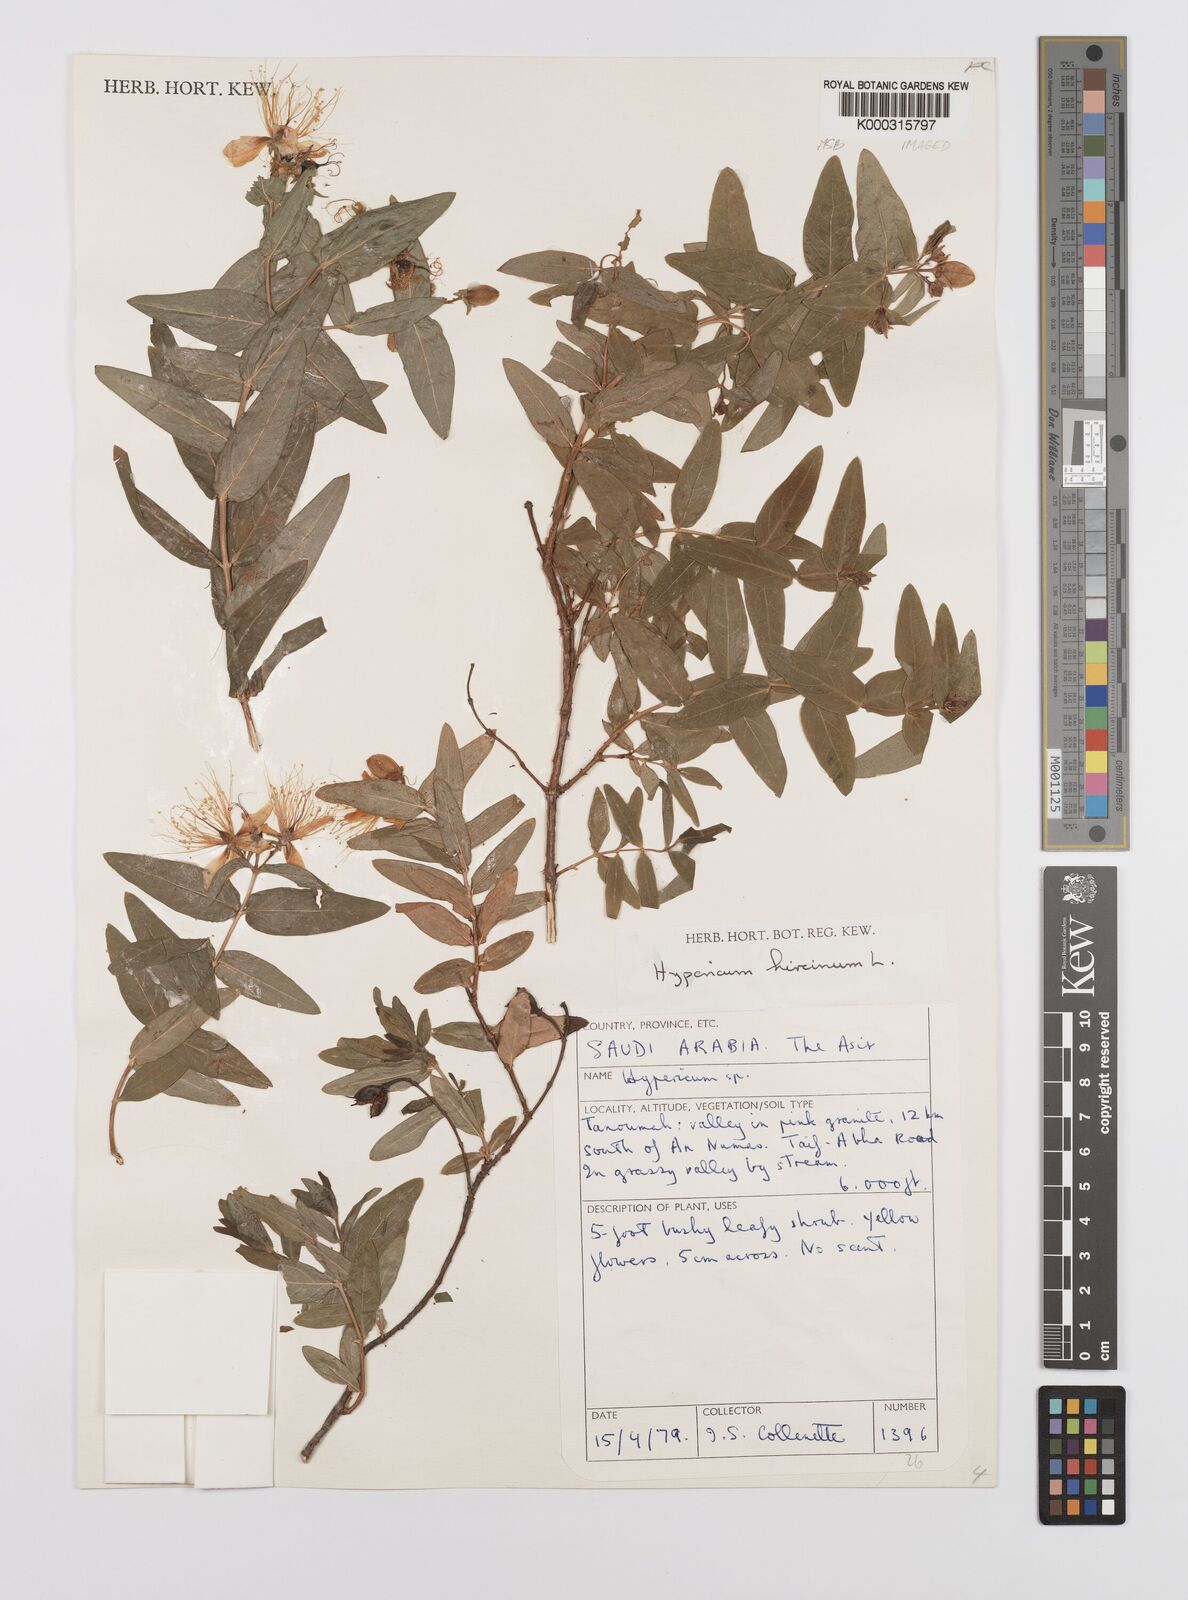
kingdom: Plantae
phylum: Tracheophyta
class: Magnoliopsida
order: Malpighiales
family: Hypericaceae
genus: Hypericum
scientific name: Hypericum hircinum
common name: Stinking tutsan
